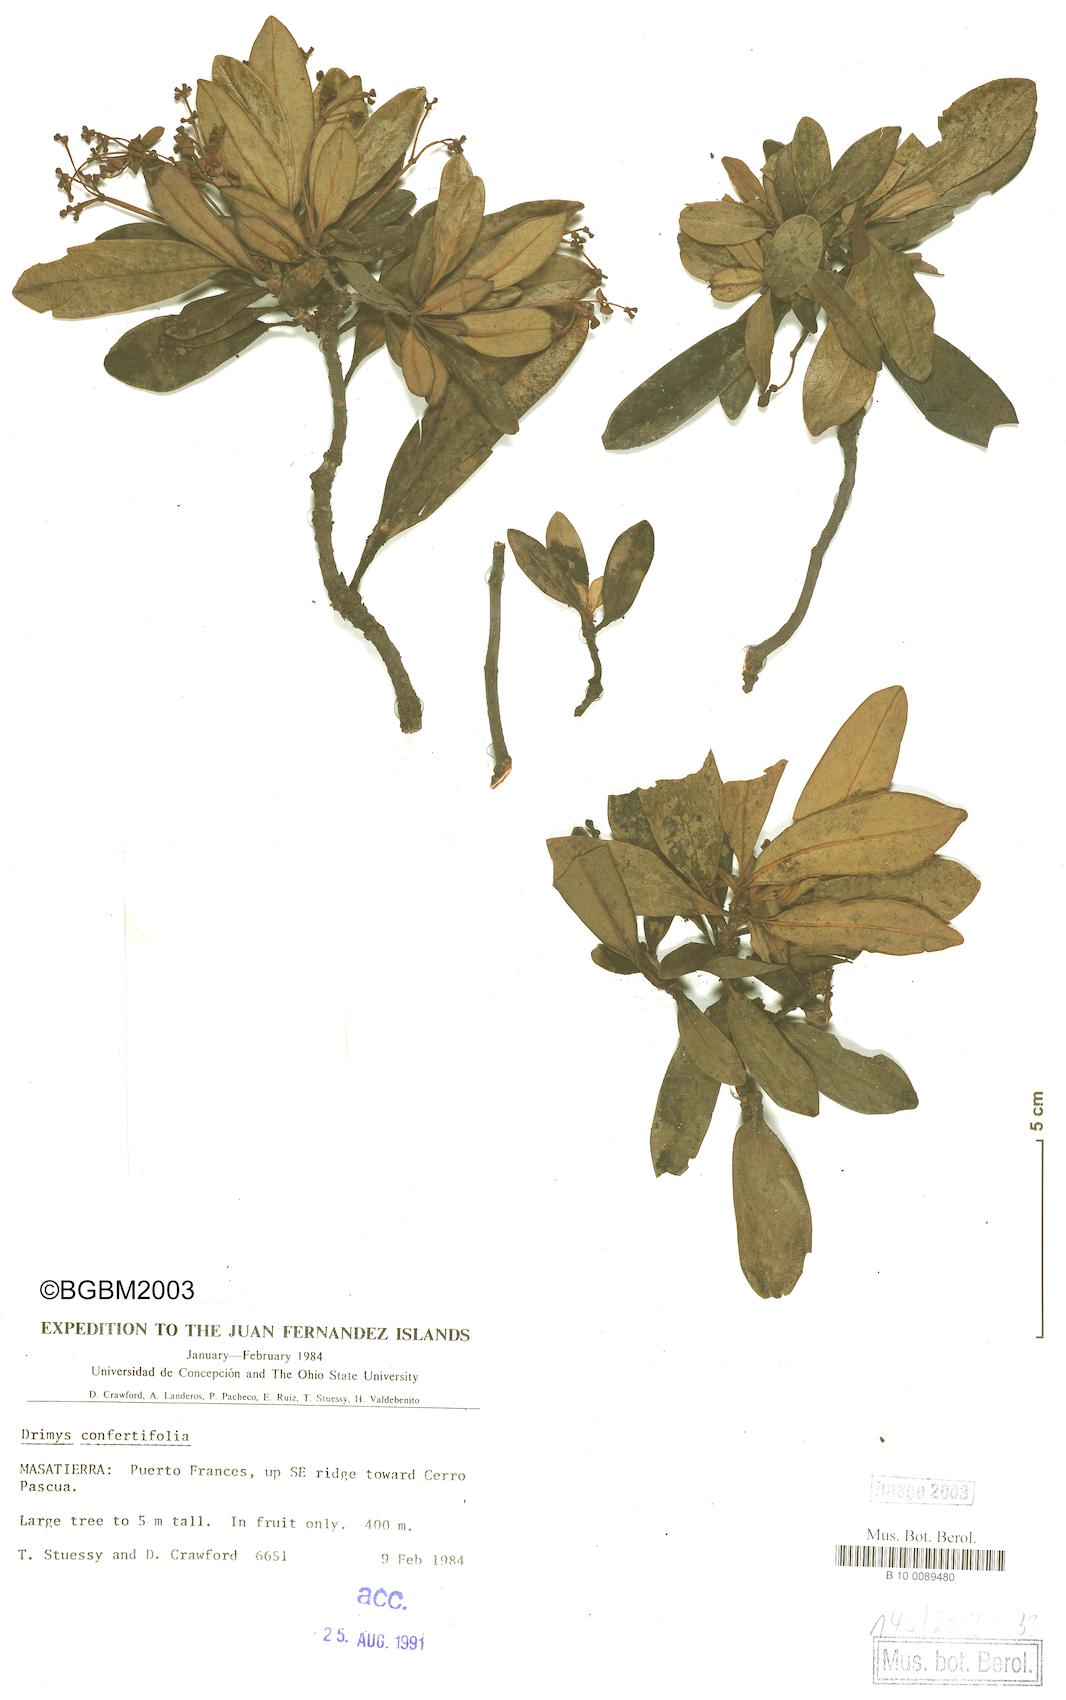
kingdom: Plantae
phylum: Tracheophyta
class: Magnoliopsida
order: Canellales
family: Winteraceae
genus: Drimys
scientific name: Drimys confertiflora
